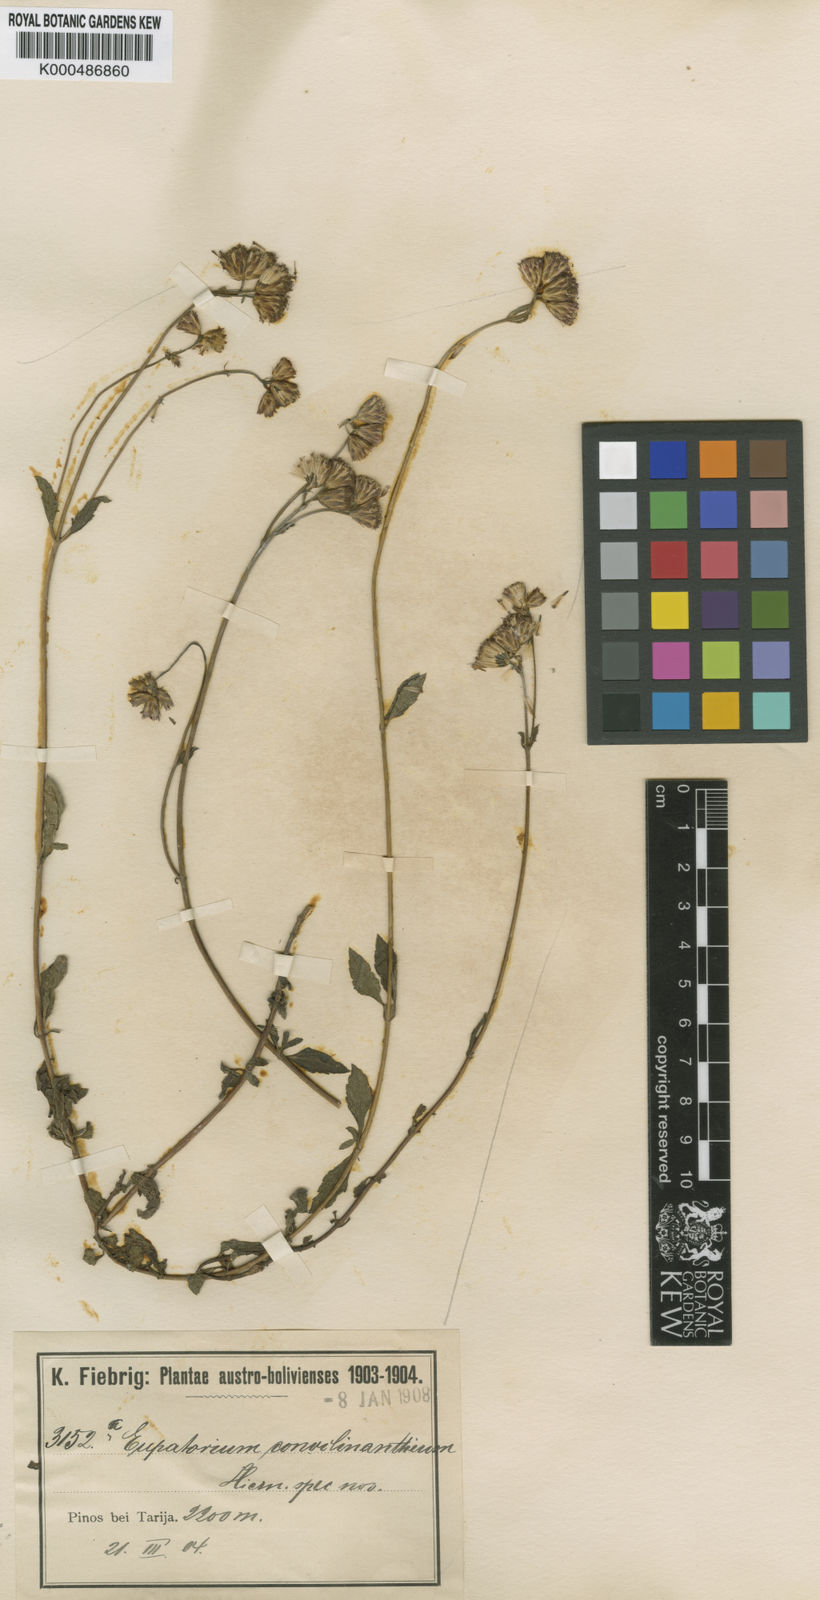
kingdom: Plantae
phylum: Tracheophyta
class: Magnoliopsida
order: Asterales
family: Asteraceae
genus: Praxelis
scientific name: Praxelis conoclinanthia
